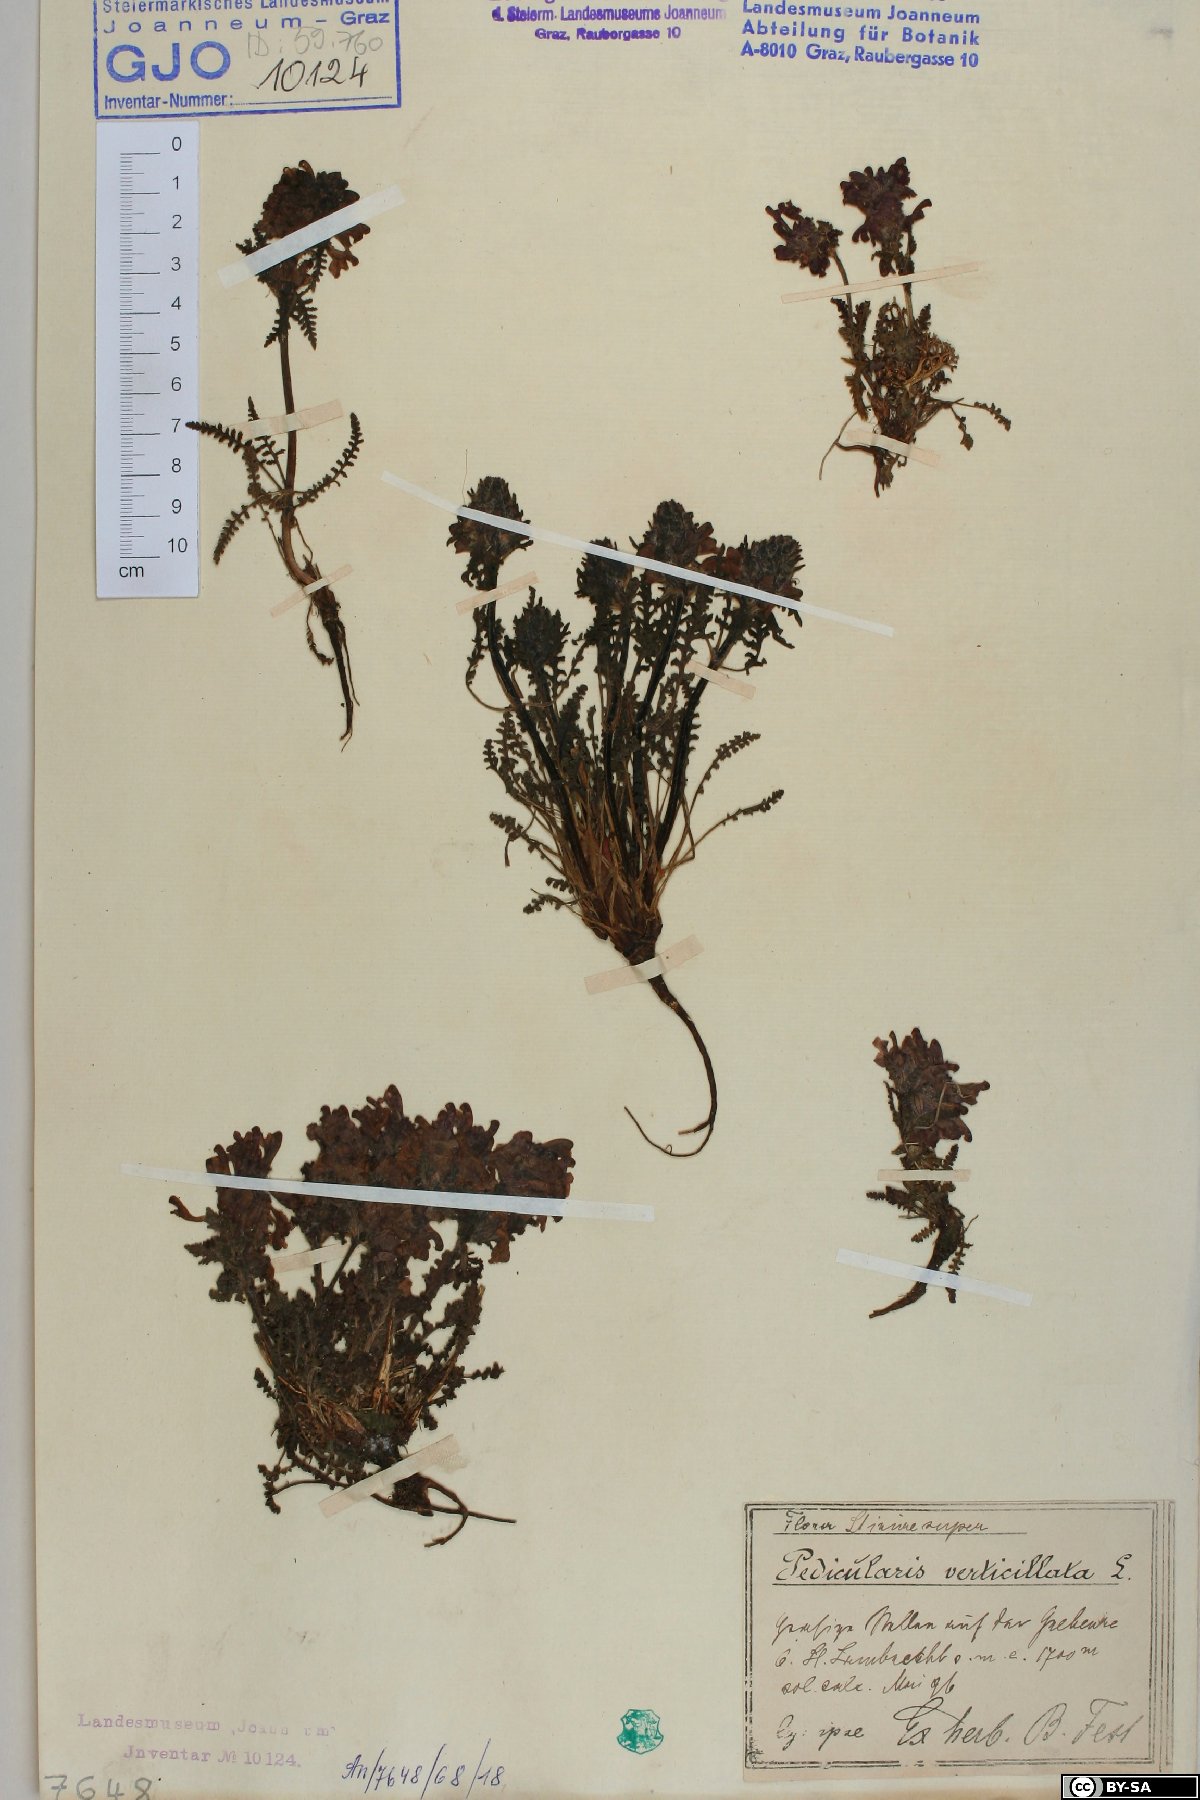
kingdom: Plantae
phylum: Tracheophyta
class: Magnoliopsida
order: Lamiales
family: Orobanchaceae
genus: Pedicularis
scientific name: Pedicularis verticillata
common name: Whorled lousewort
